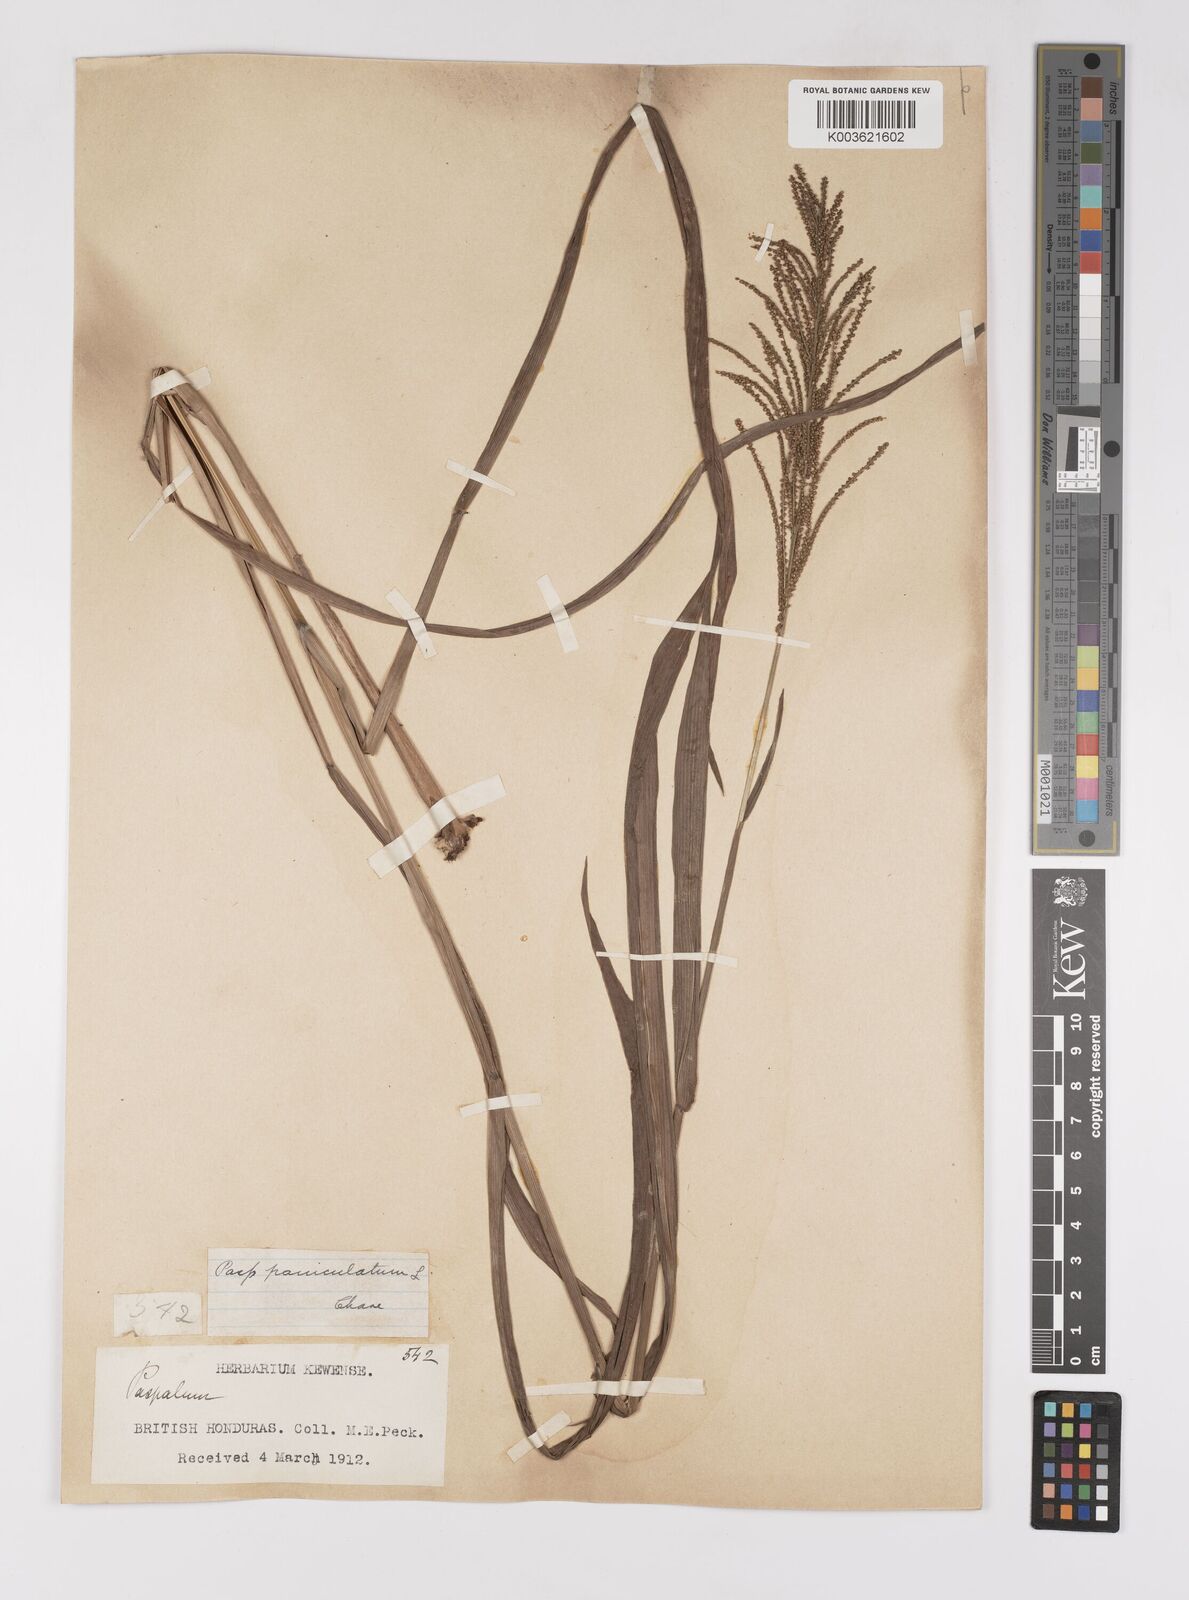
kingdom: Plantae
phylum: Tracheophyta
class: Liliopsida
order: Poales
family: Poaceae
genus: Paspalum
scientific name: Paspalum paniculatum
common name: Arrocillo
